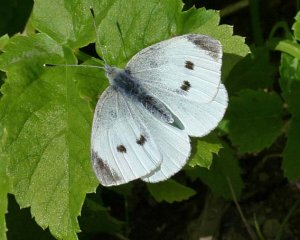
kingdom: Animalia
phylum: Arthropoda
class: Insecta
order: Lepidoptera
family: Pieridae
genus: Pieris
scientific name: Pieris rapae
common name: Cabbage White
